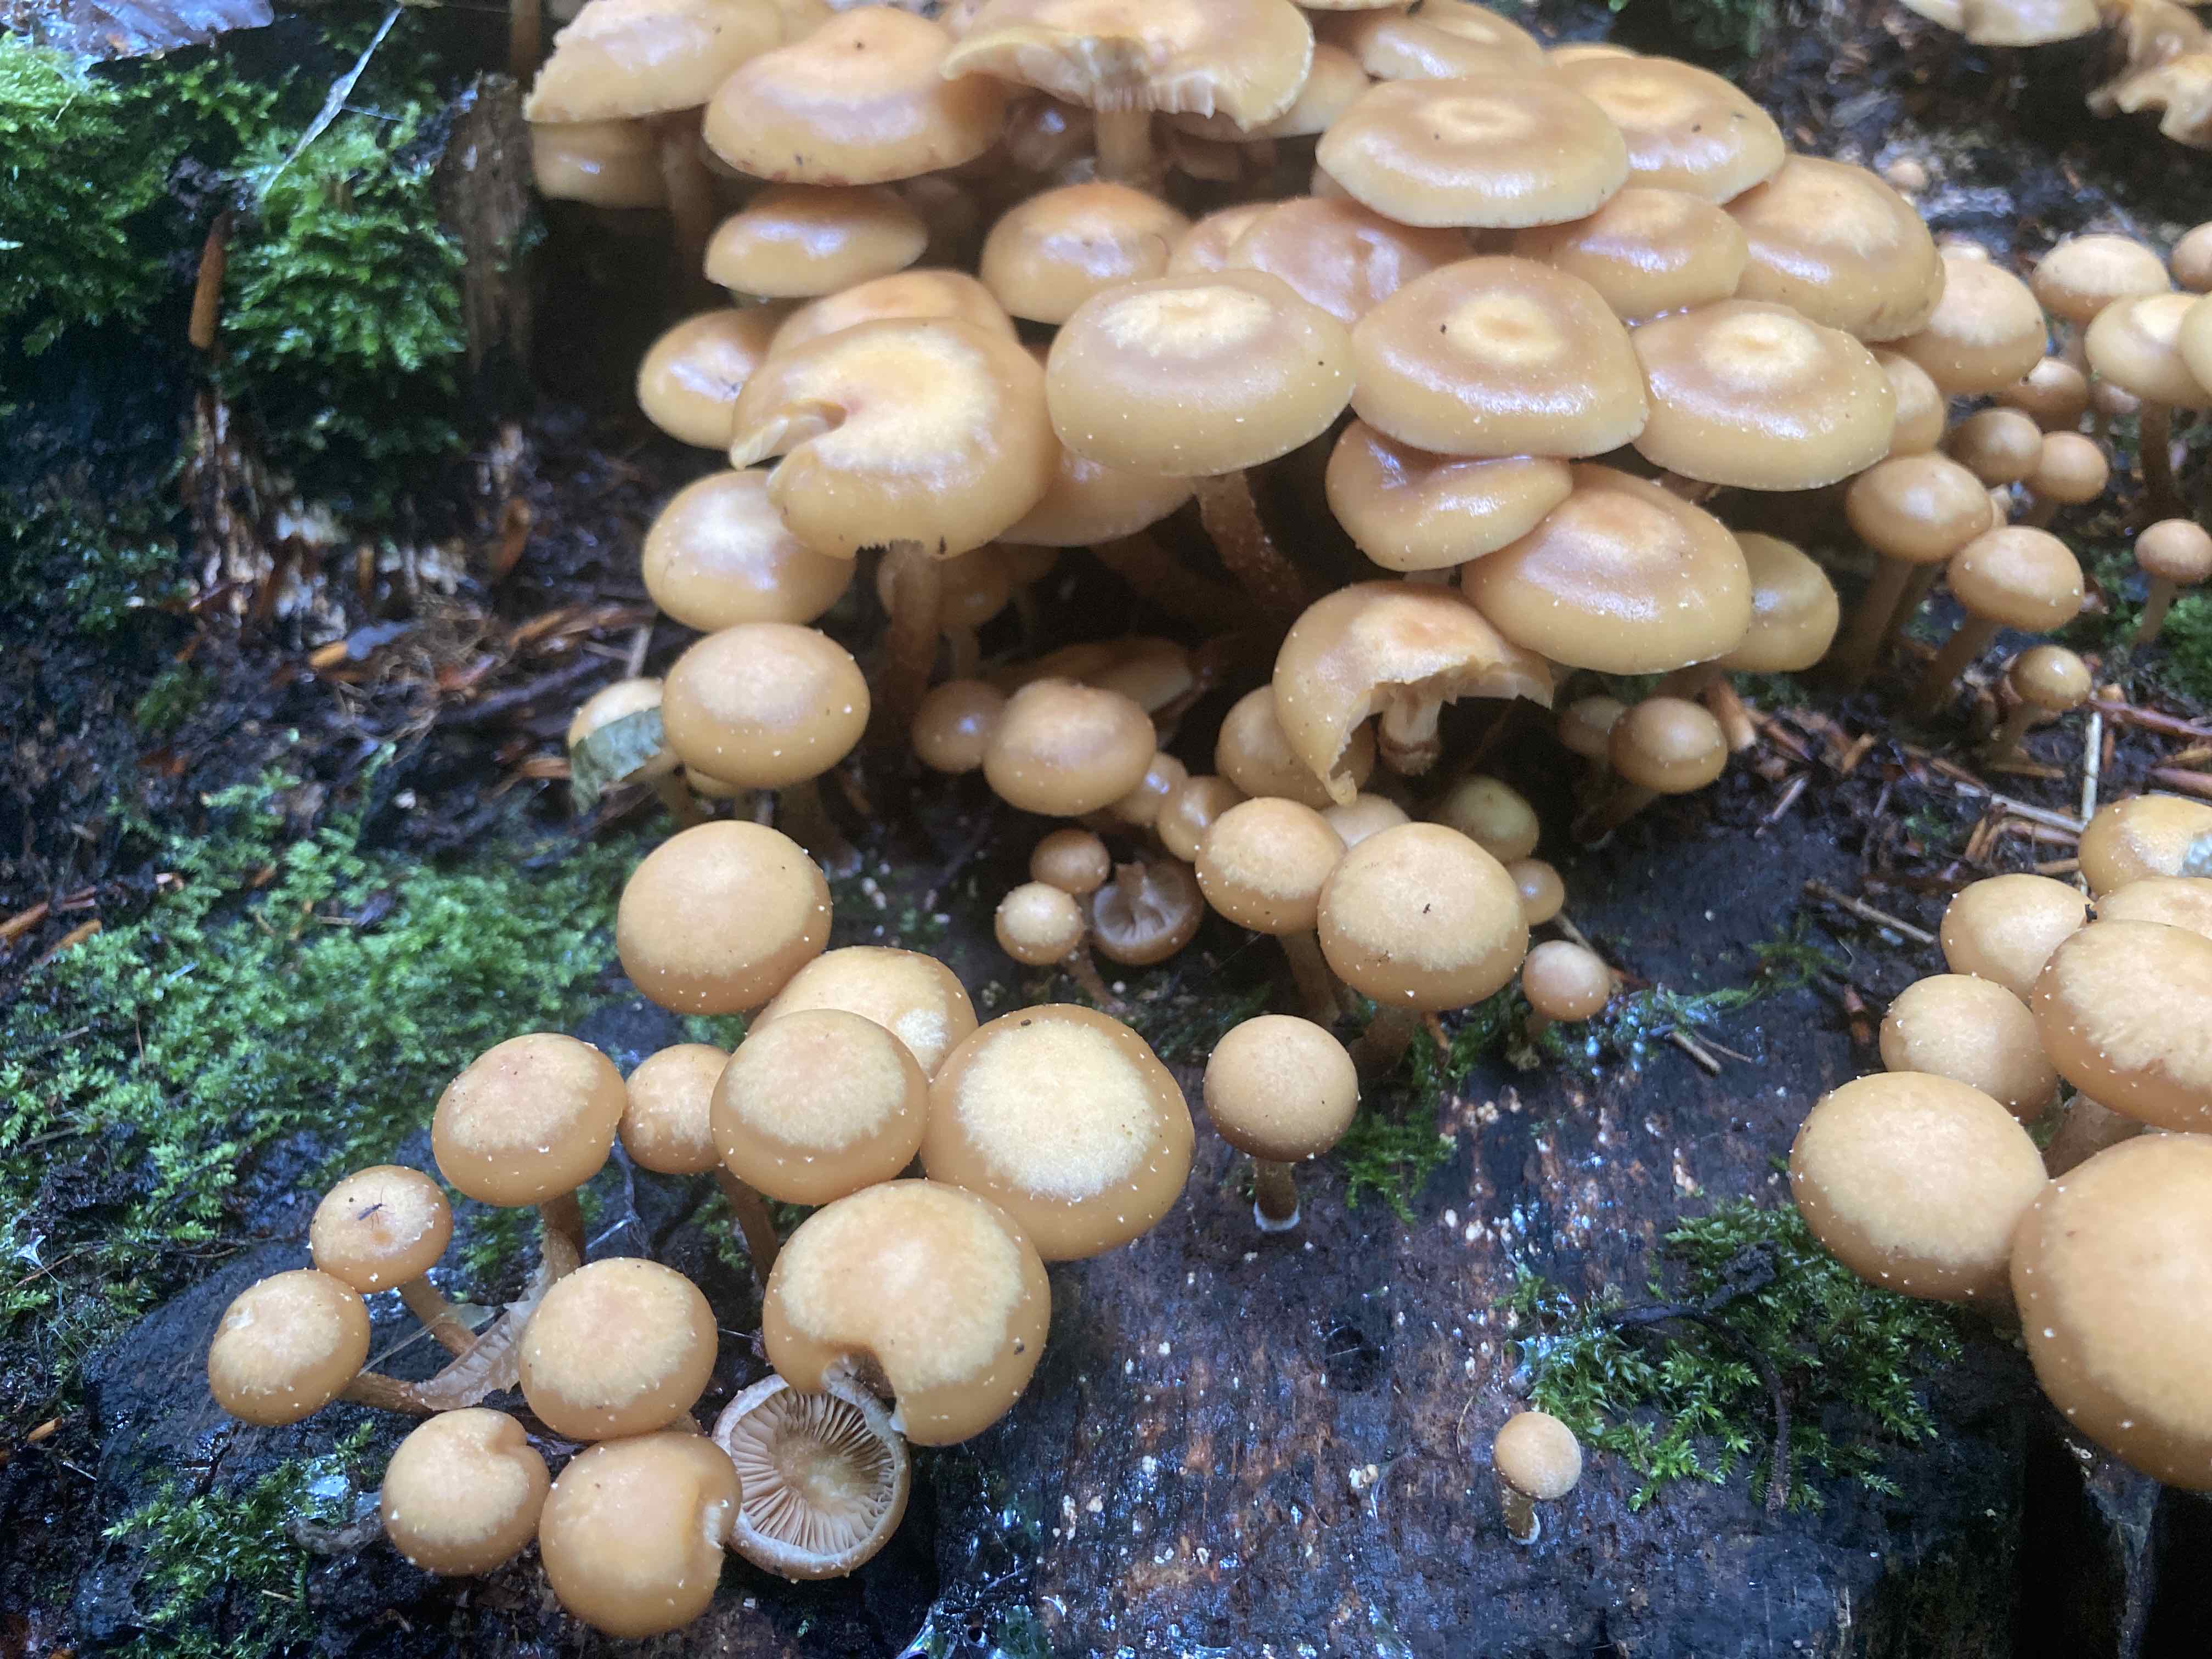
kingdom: Fungi
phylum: Basidiomycota
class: Agaricomycetes
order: Agaricales
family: Strophariaceae
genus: Kuehneromyces
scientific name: Kuehneromyces mutabilis
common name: foranderlig skælhat
